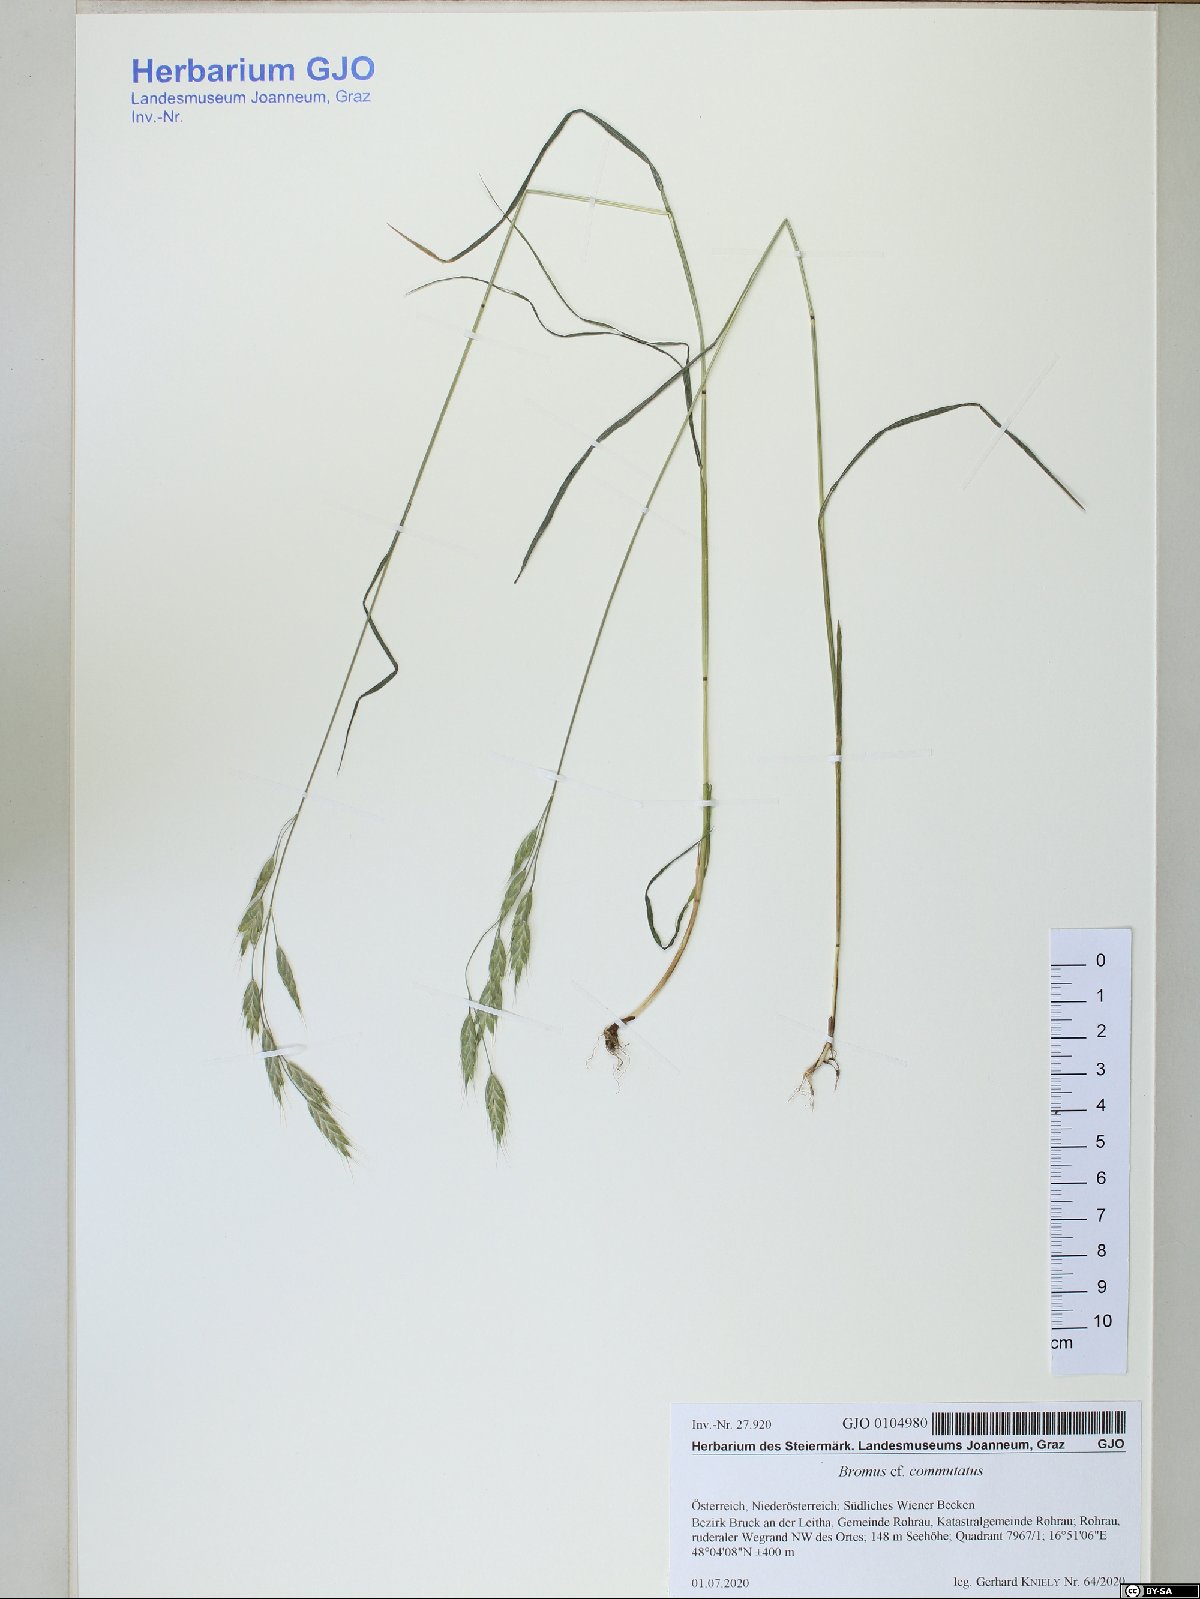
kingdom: Plantae
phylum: Tracheophyta
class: Liliopsida
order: Poales
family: Poaceae
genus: Bromus
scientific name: Bromus commutatus
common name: Meadow brome
